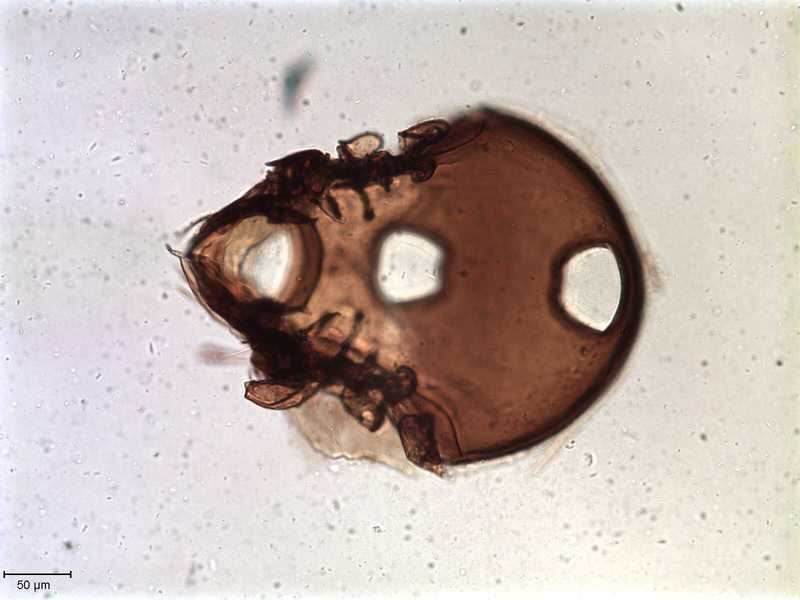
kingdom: Animalia
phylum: Arthropoda
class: Arachnida
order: Sarcoptiformes
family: Tegoribatidae
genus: Plakoribates
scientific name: Plakoribates multicuspidatus
